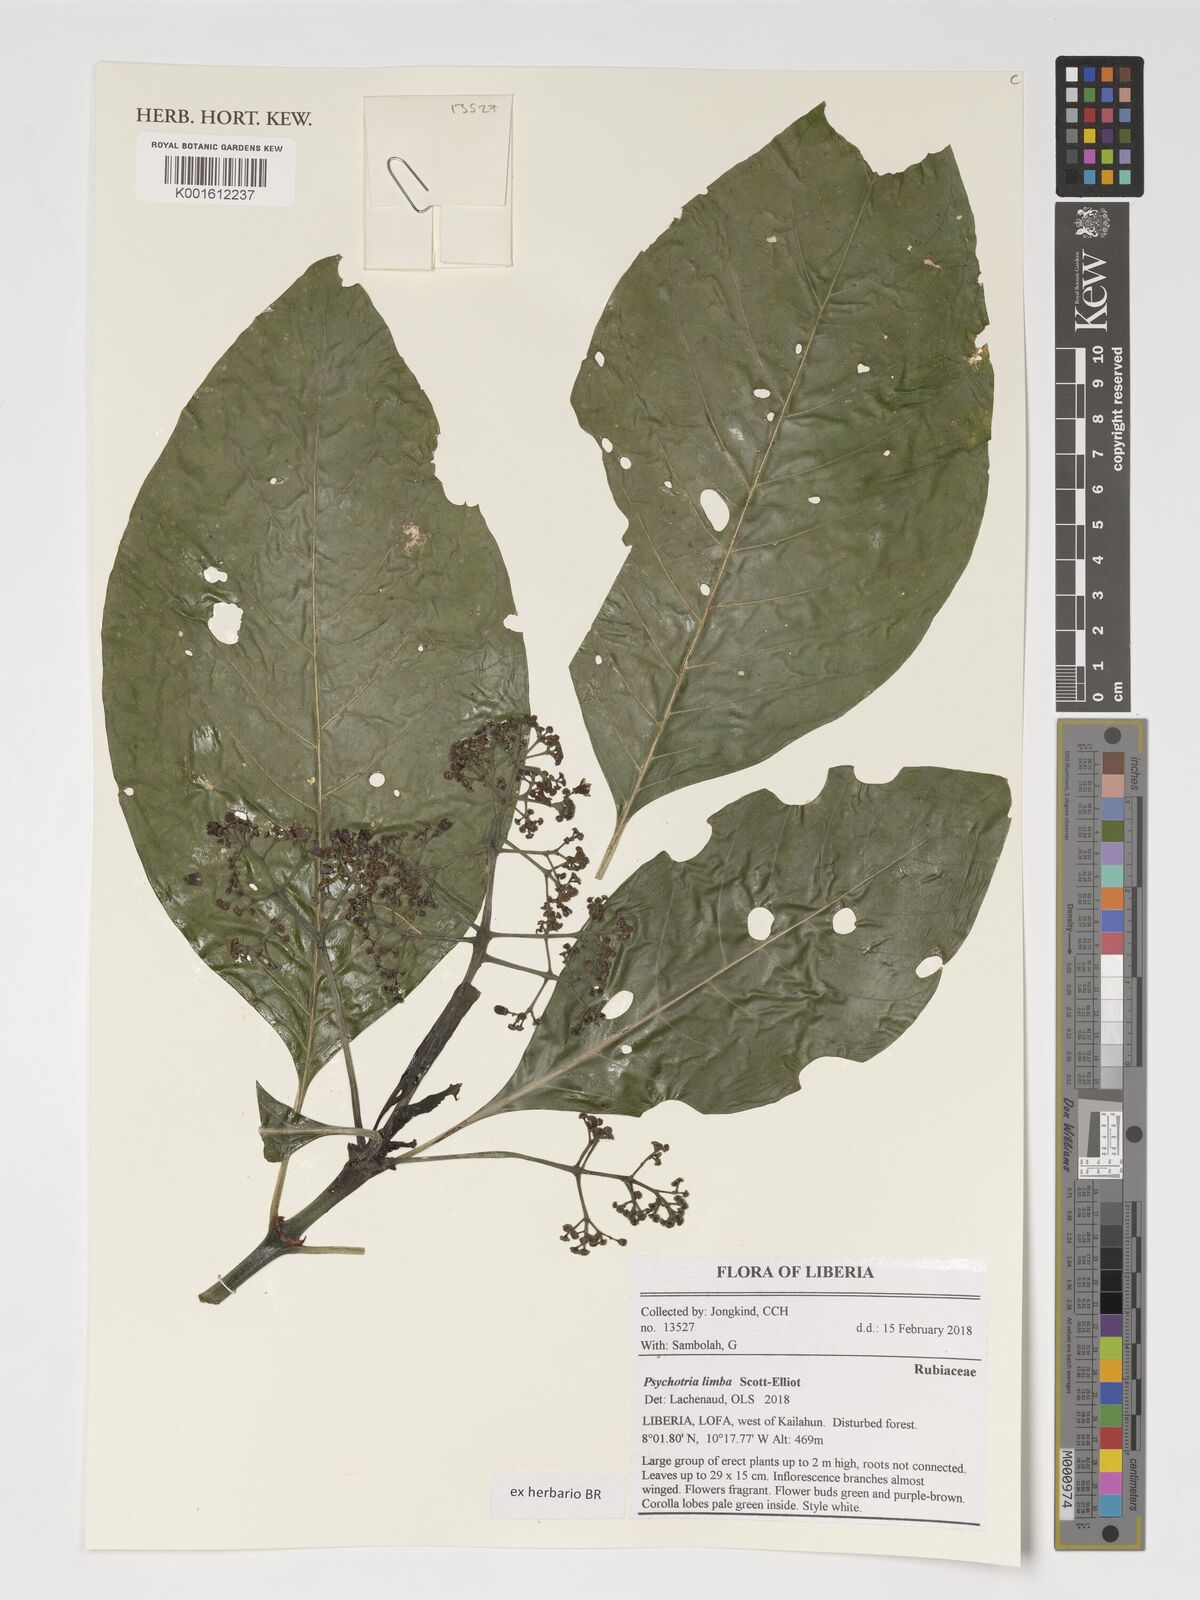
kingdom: Plantae
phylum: Tracheophyta
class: Magnoliopsida
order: Gentianales
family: Rubiaceae
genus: Psychotria
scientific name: Psychotria limba
